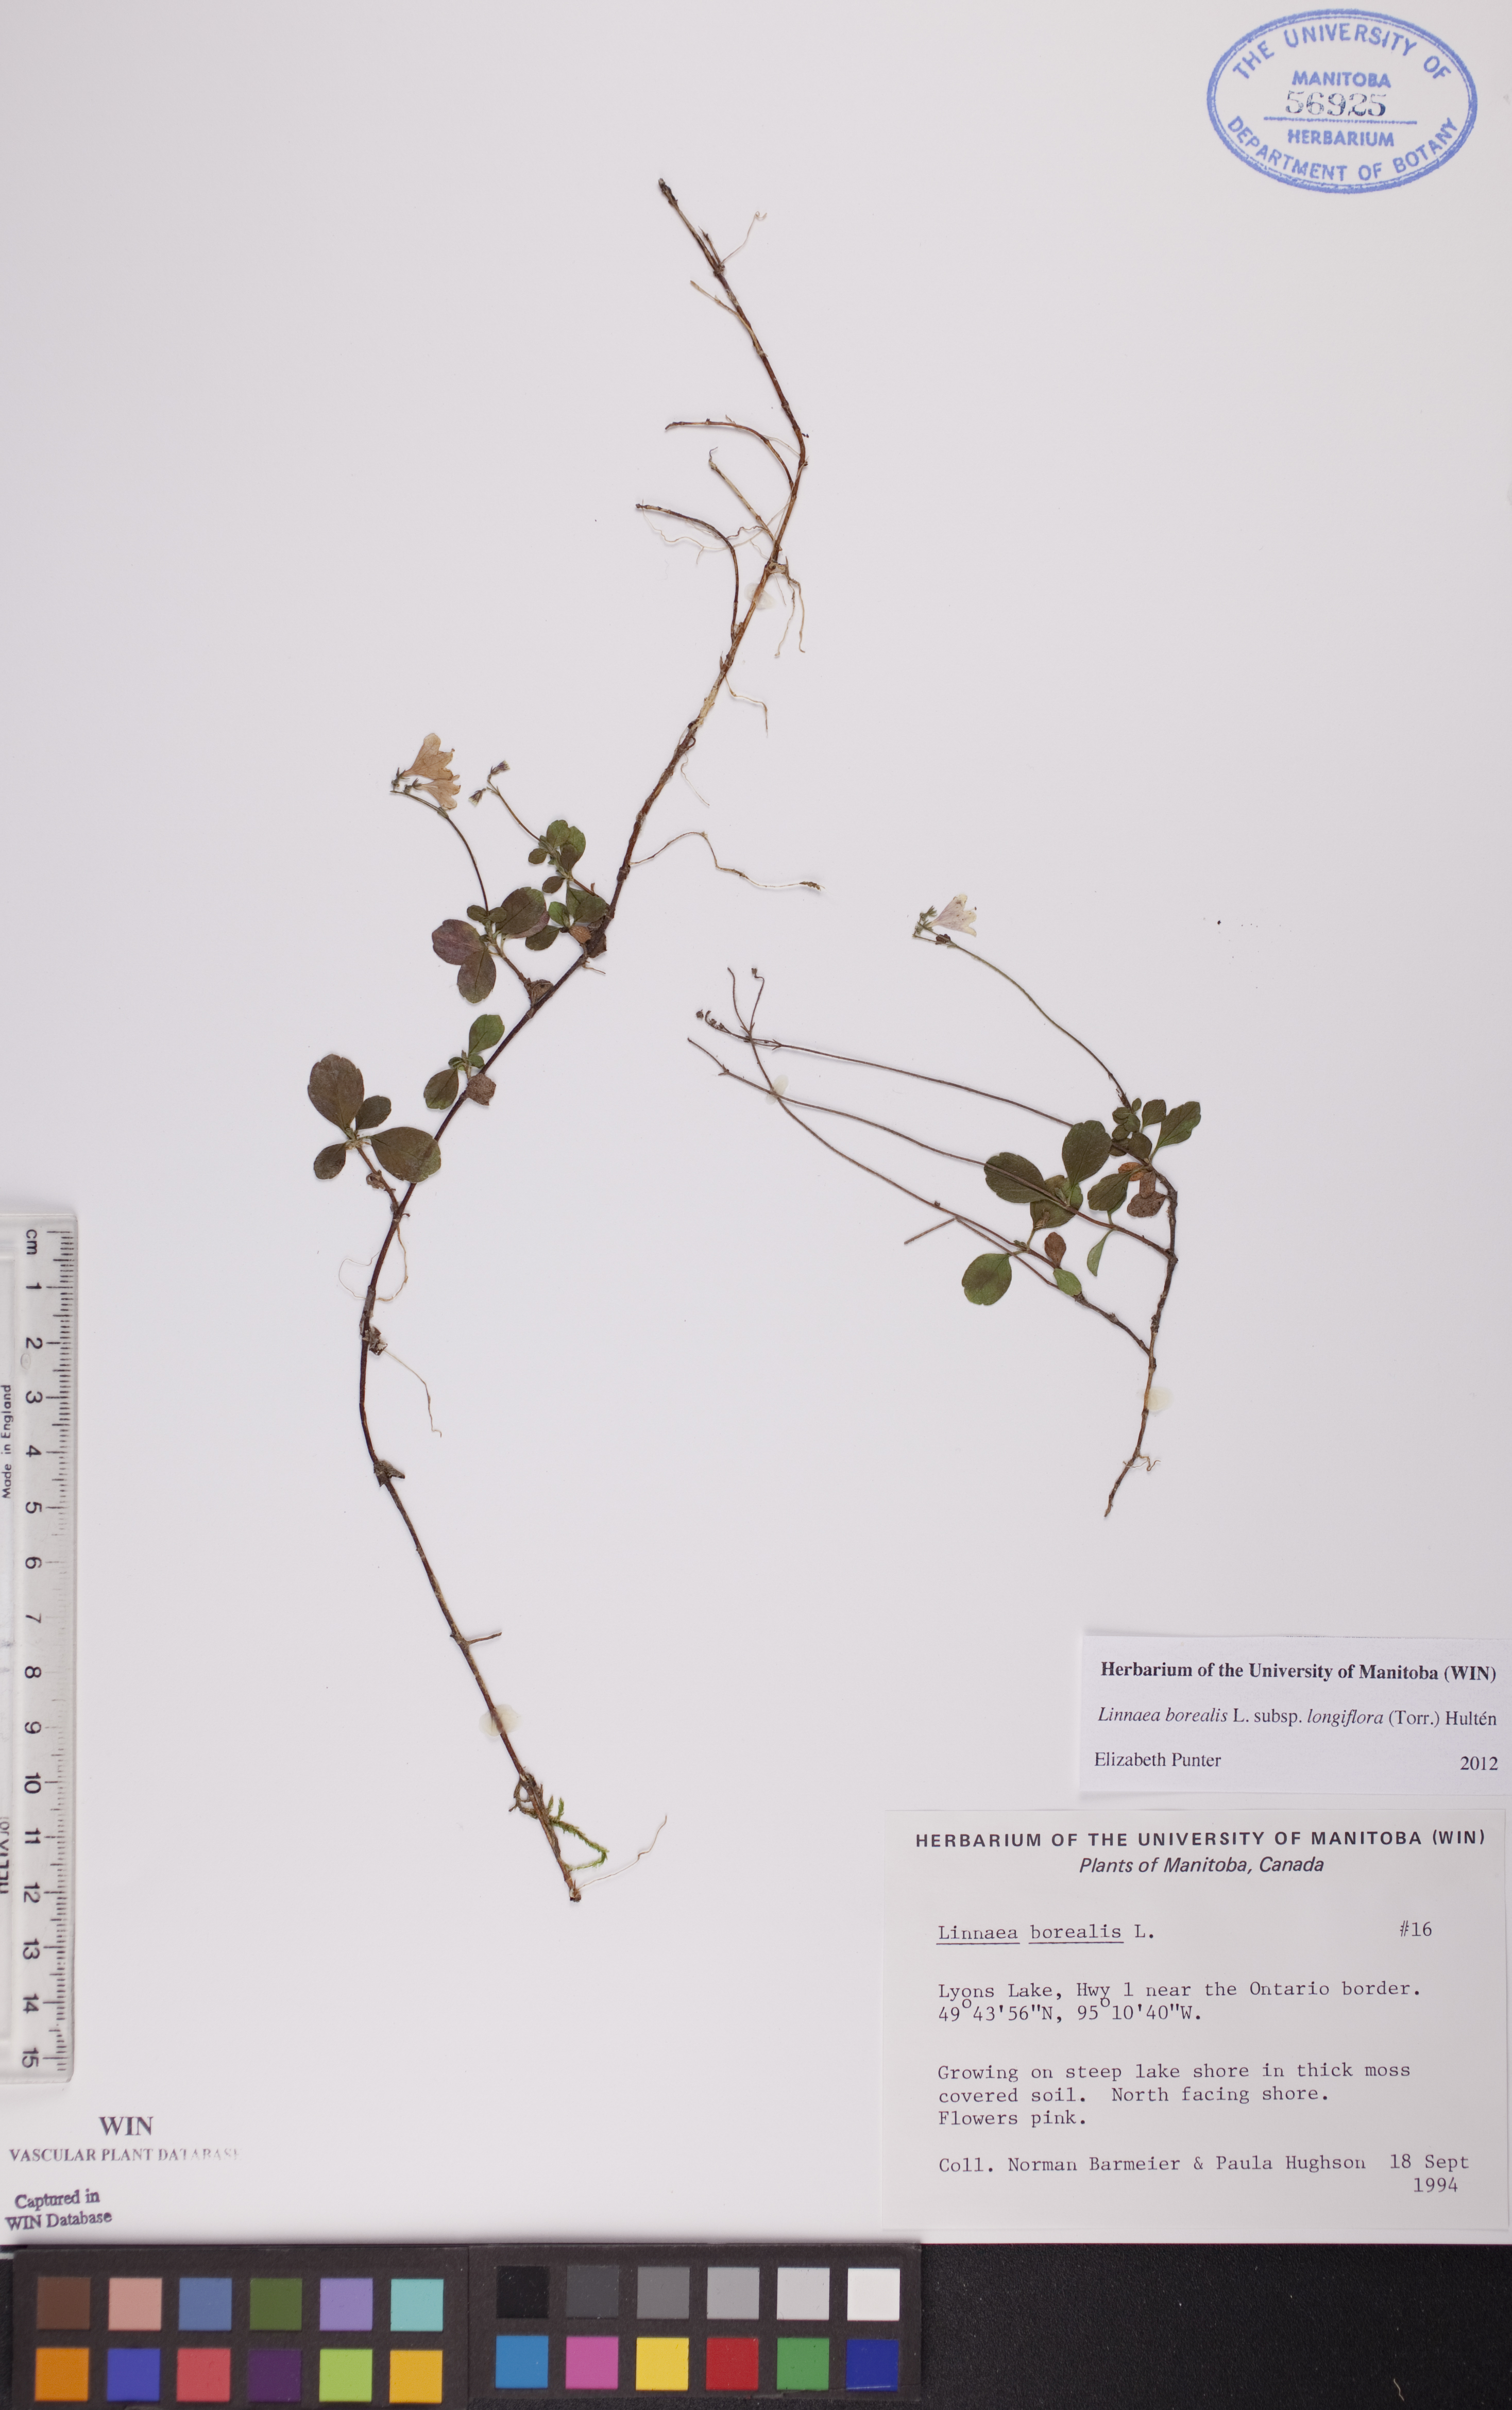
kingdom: Plantae
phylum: Tracheophyta
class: Magnoliopsida
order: Dipsacales
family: Caprifoliaceae
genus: Linnaea
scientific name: Linnaea borealis
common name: Twinflower
